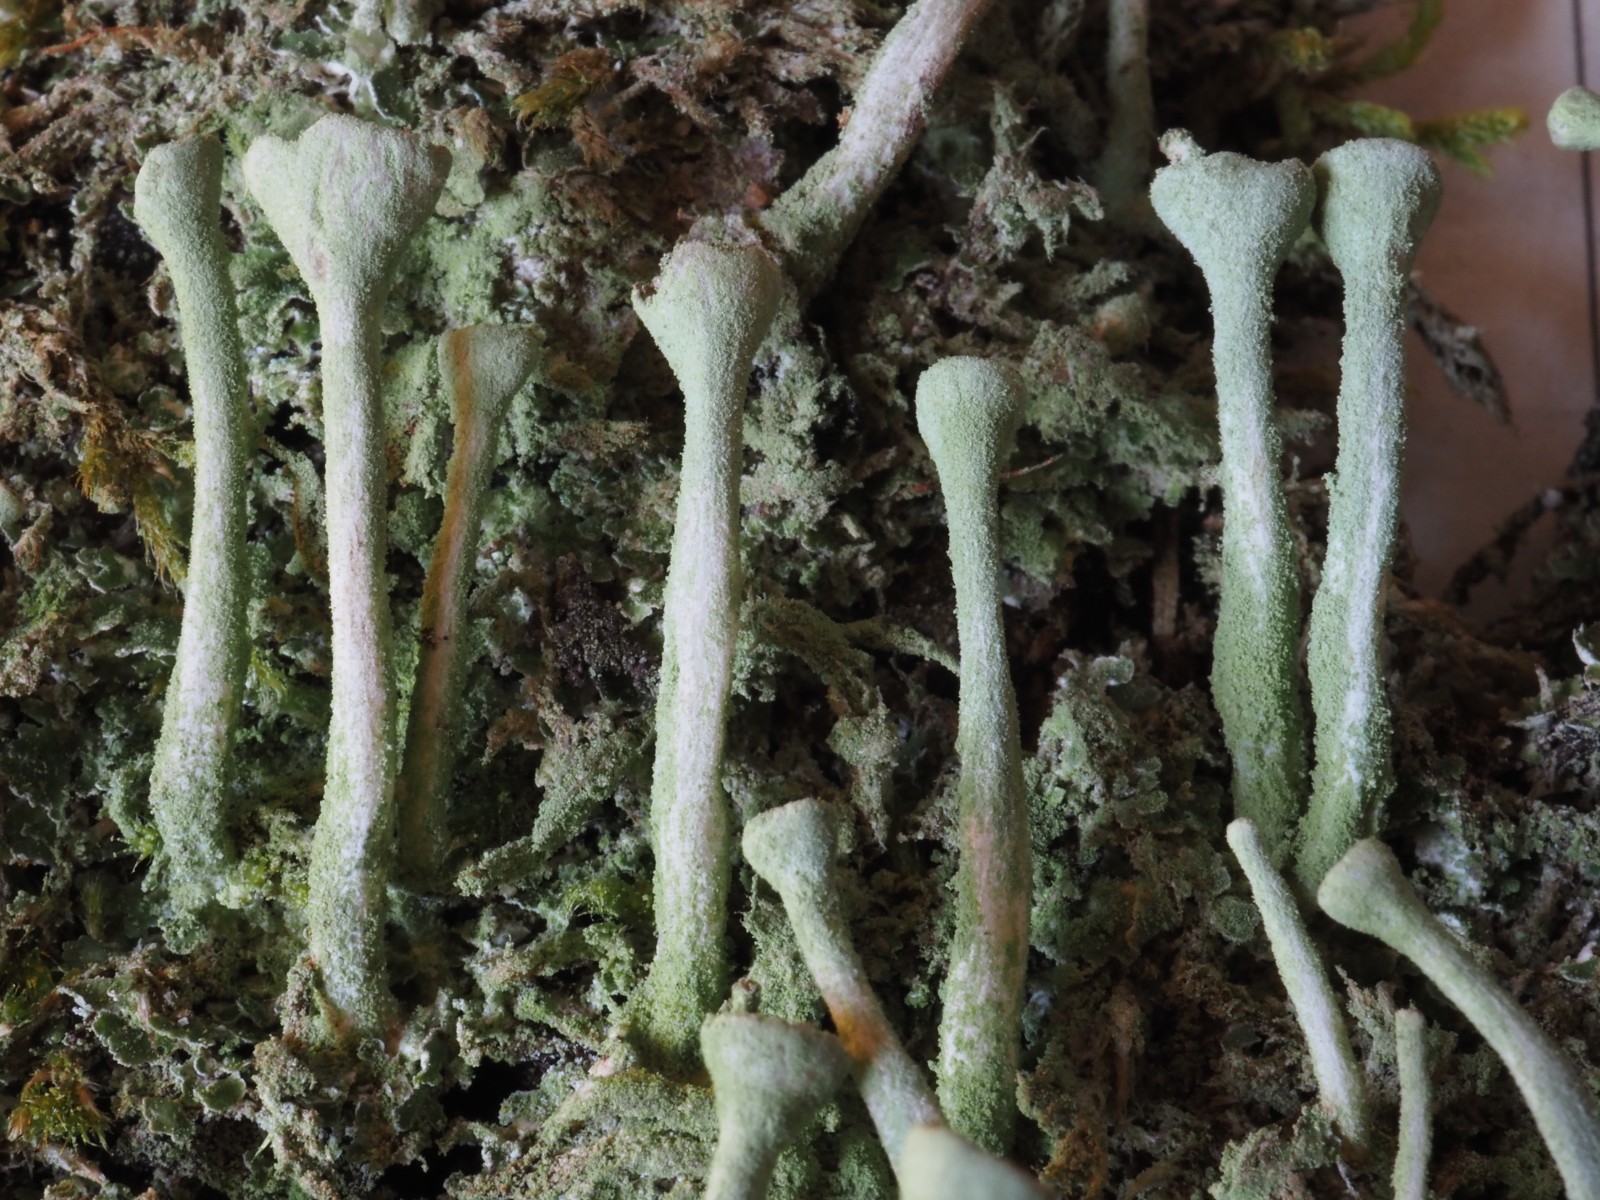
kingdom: Fungi
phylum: Ascomycota
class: Lecanoromycetes
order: Lecanorales
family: Cladoniaceae
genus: Cladonia
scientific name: Cladonia fimbriata
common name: bleggrøn bægerlav
